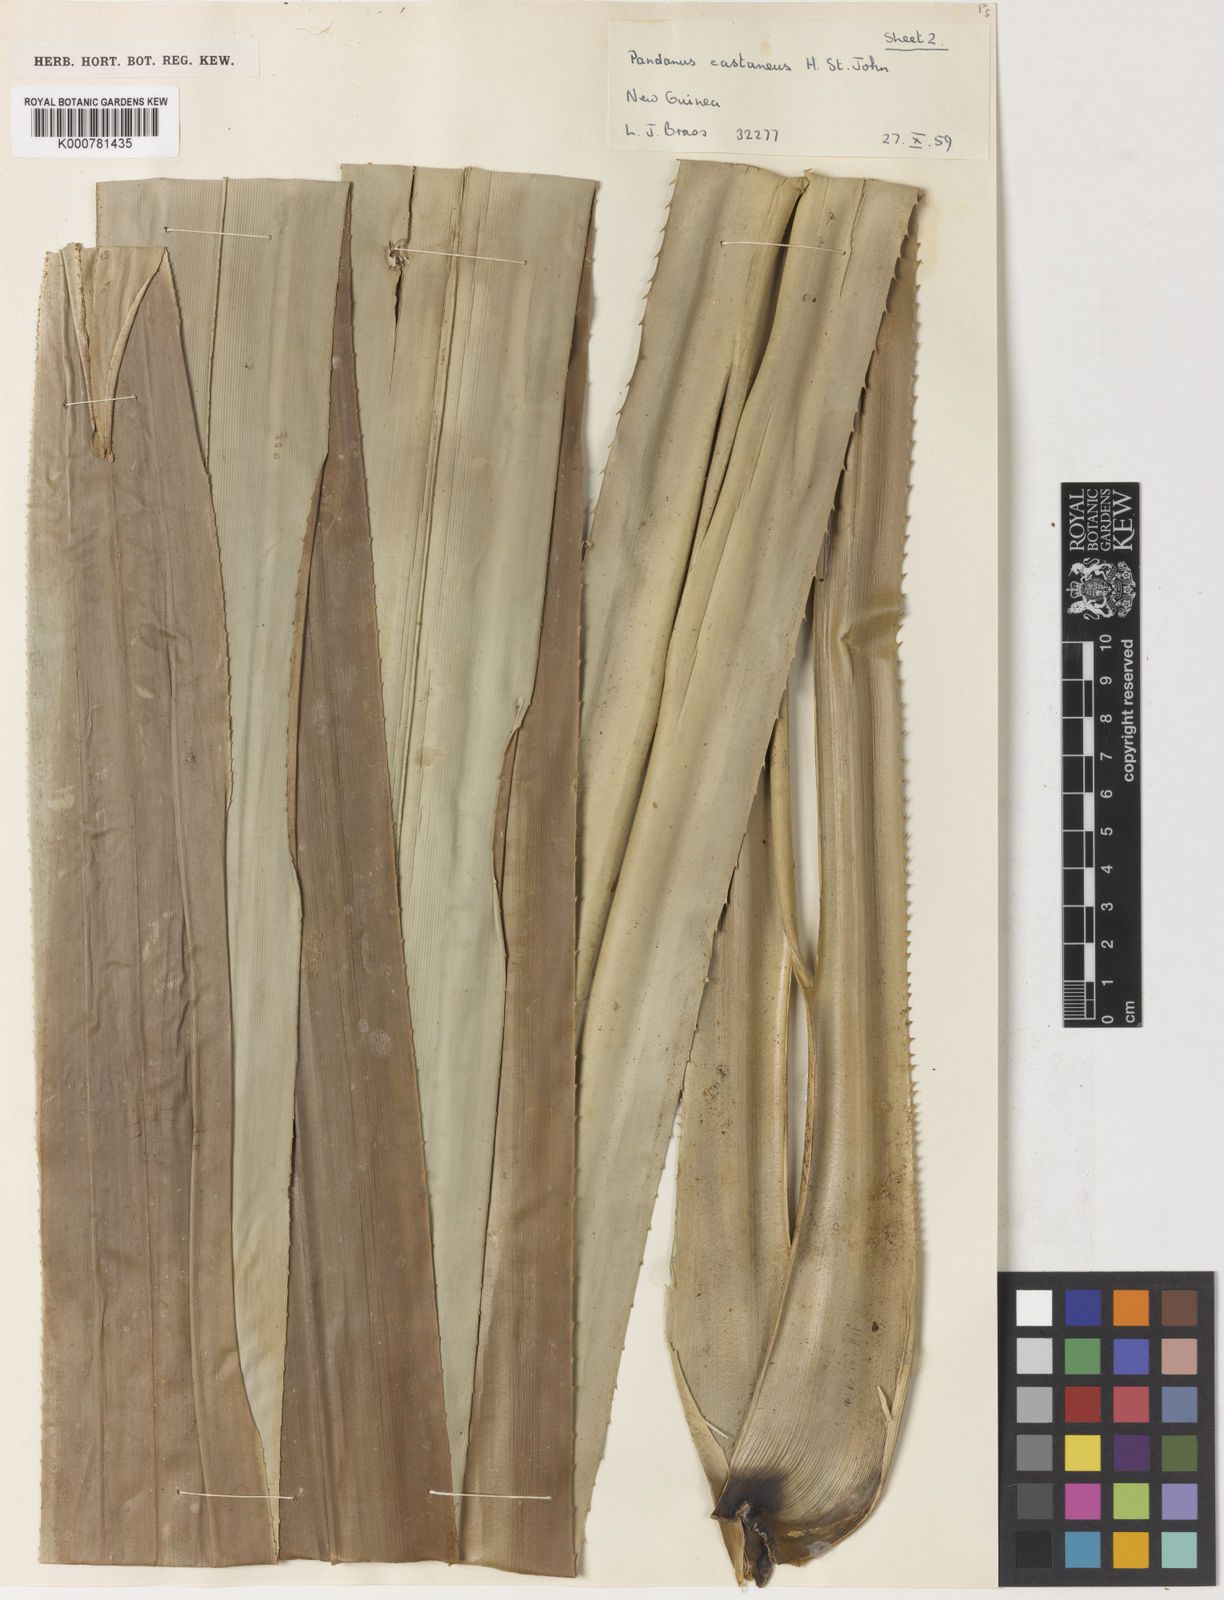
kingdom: Plantae
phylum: Tracheophyta
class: Liliopsida
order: Pandanales
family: Pandanaceae
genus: Pandanus
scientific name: Pandanus castaneus
